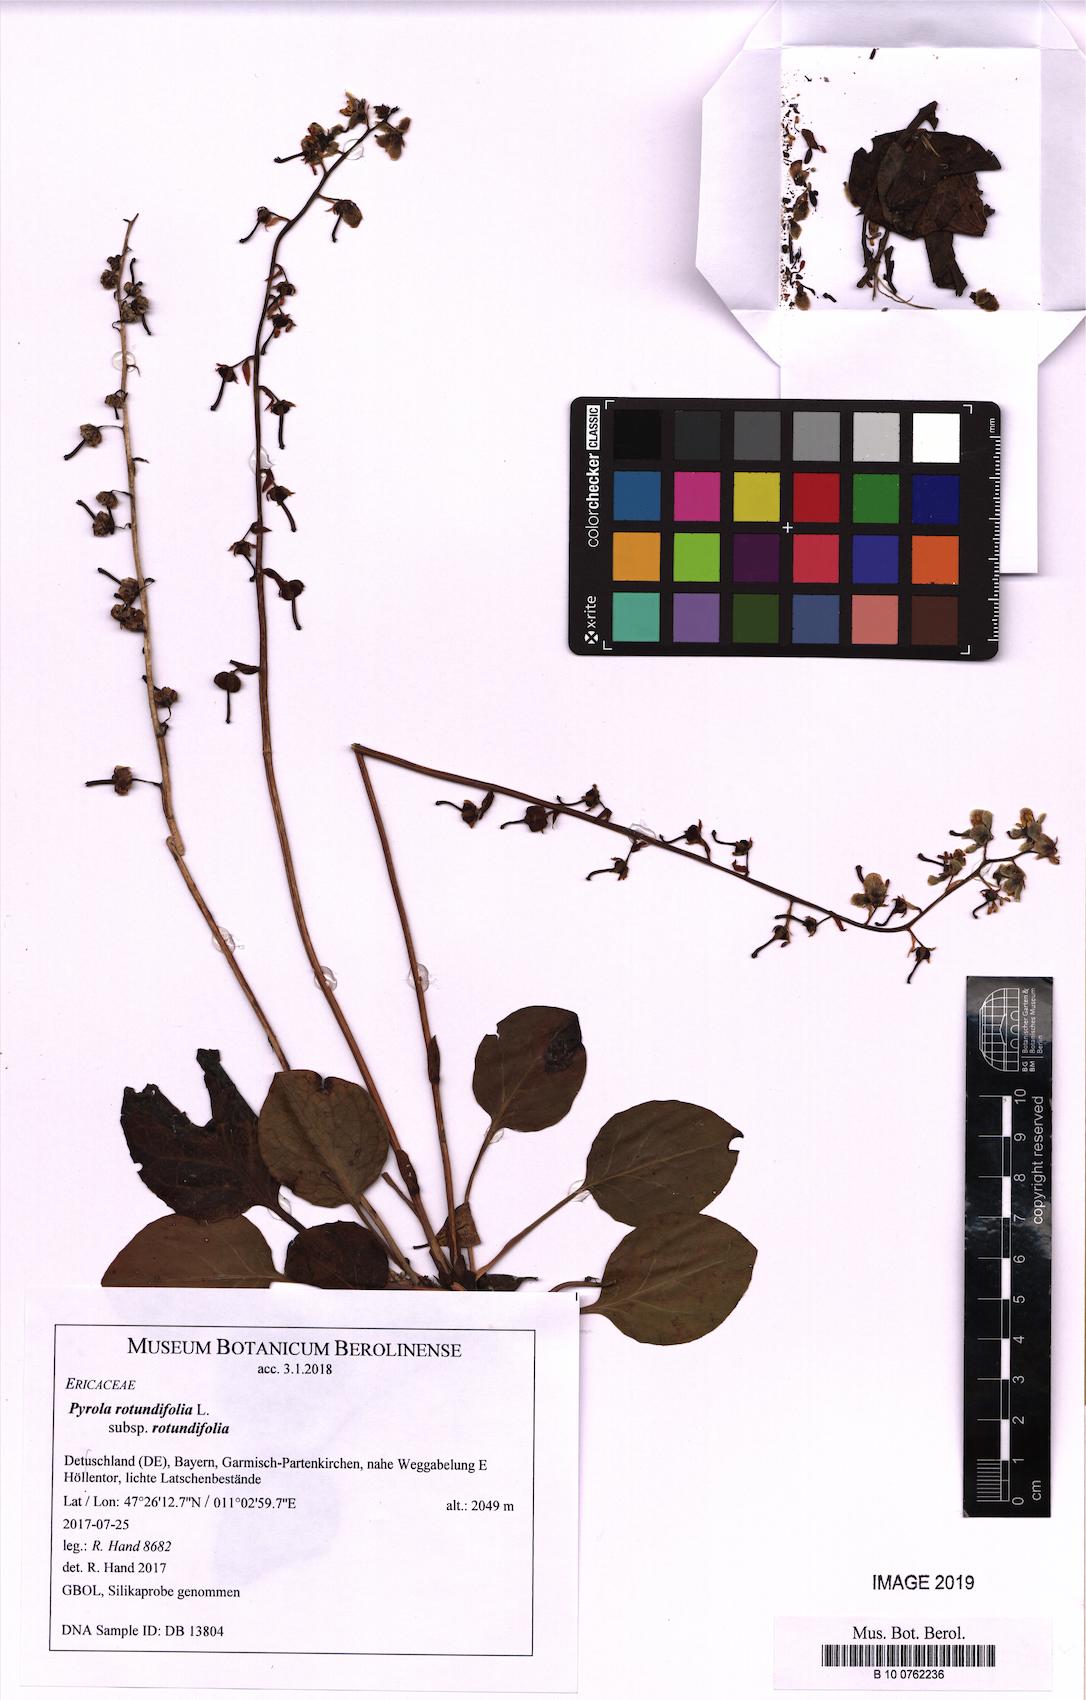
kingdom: Plantae
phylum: Tracheophyta
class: Magnoliopsida
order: Ericales
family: Ericaceae
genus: Pyrola
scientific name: Pyrola rotundifolia
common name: Round-leaved wintergreen
